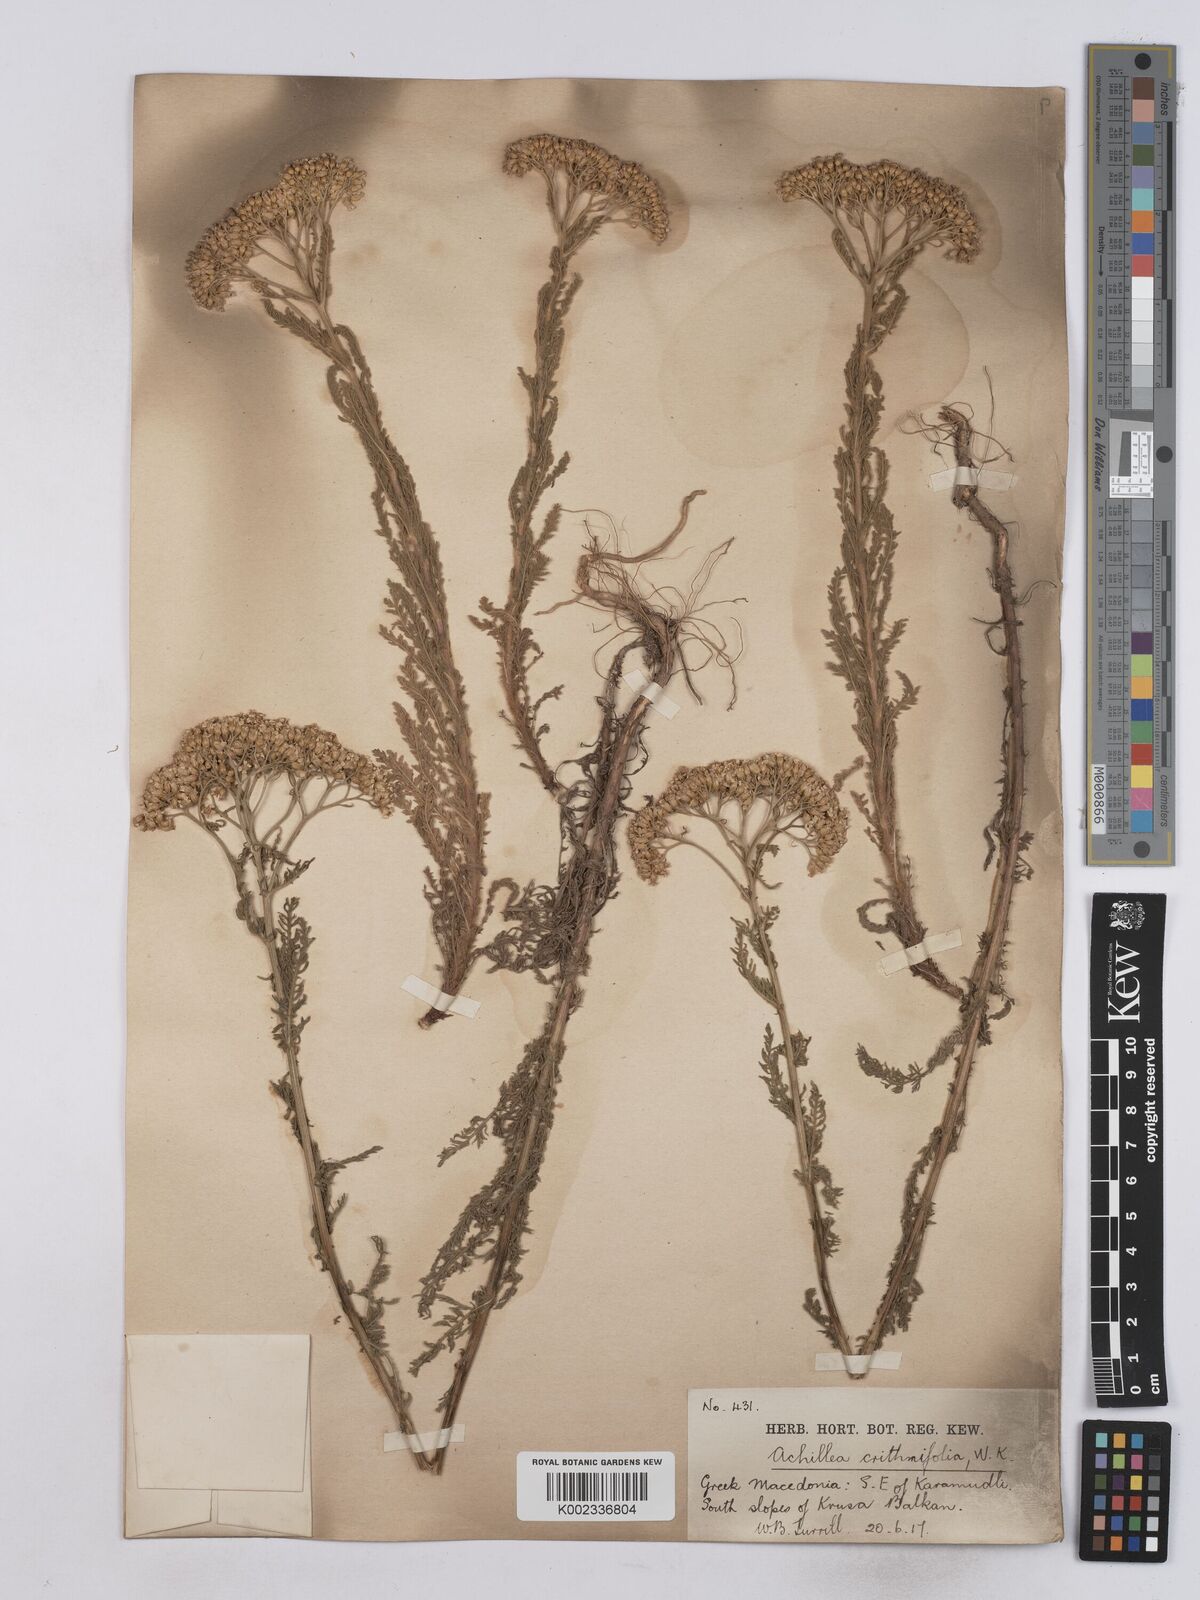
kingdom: Plantae
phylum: Tracheophyta
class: Magnoliopsida
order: Asterales
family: Asteraceae
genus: Achillea
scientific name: Achillea crithmifolia
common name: Yarrow
